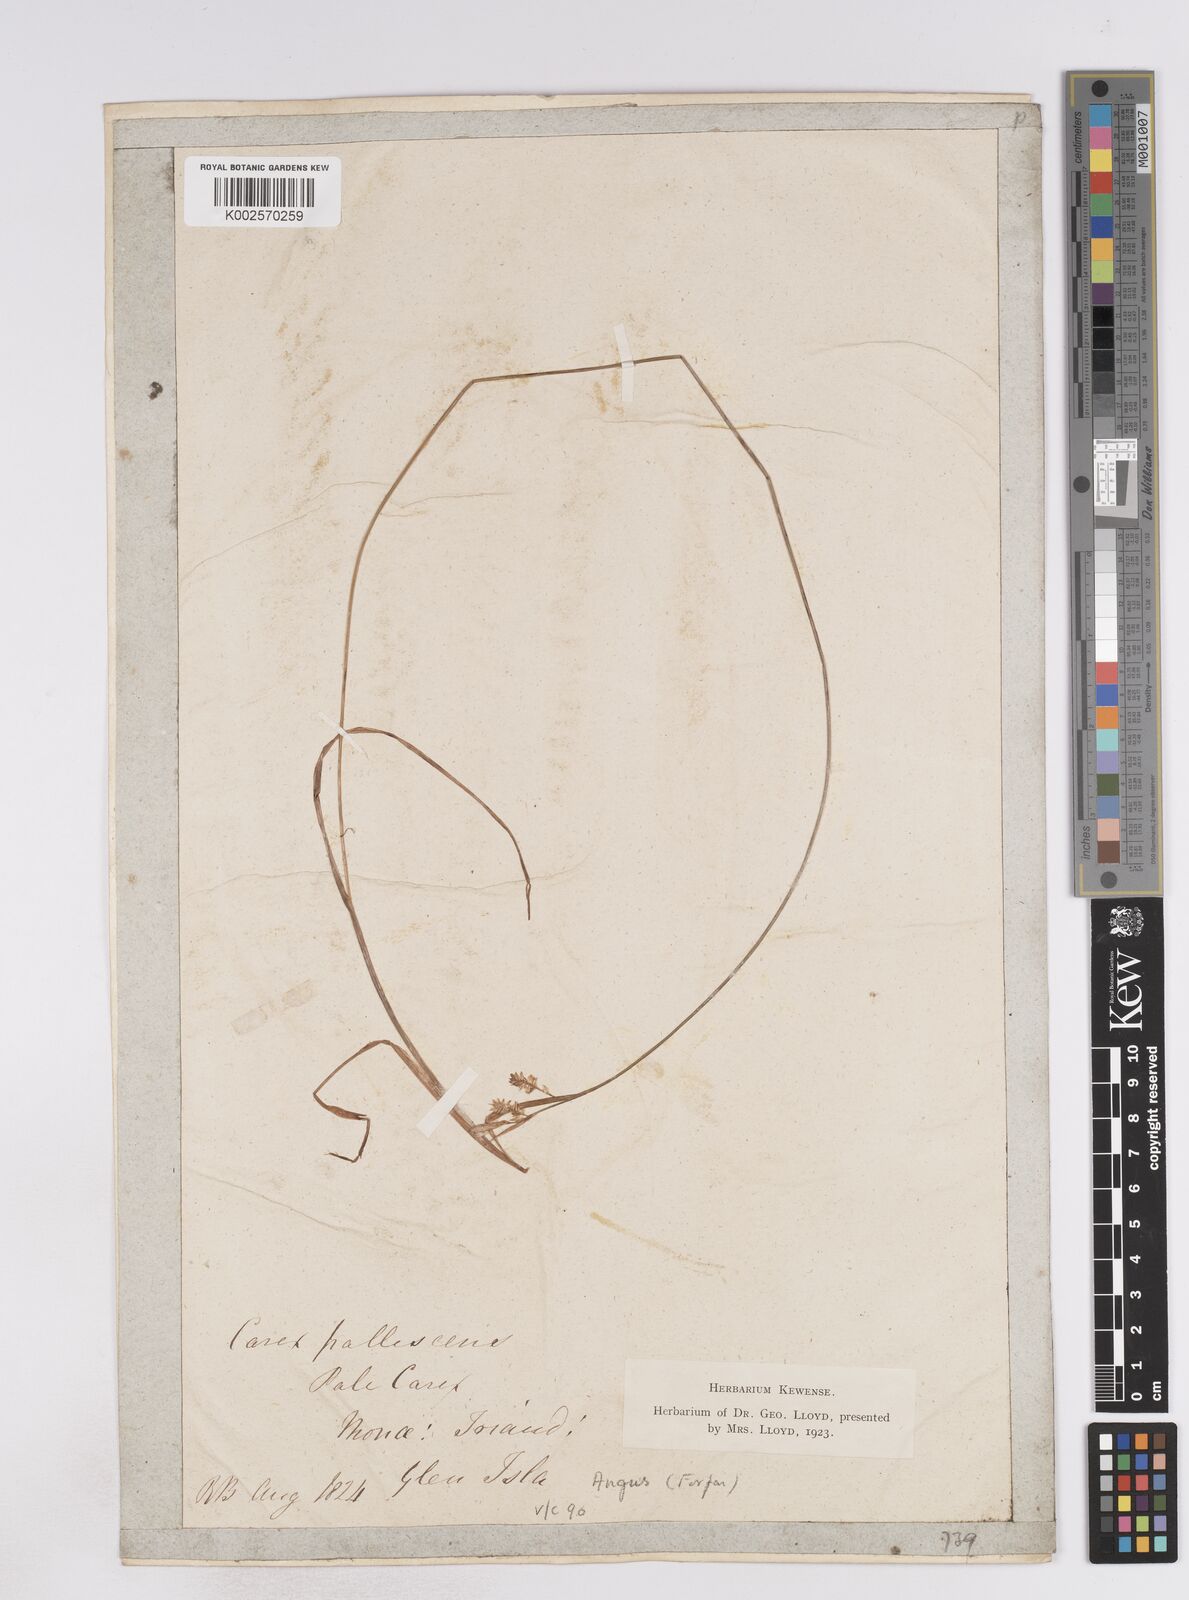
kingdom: Plantae
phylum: Tracheophyta
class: Liliopsida
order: Poales
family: Cyperaceae
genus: Carex
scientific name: Carex pallescens
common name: Pale sedge
